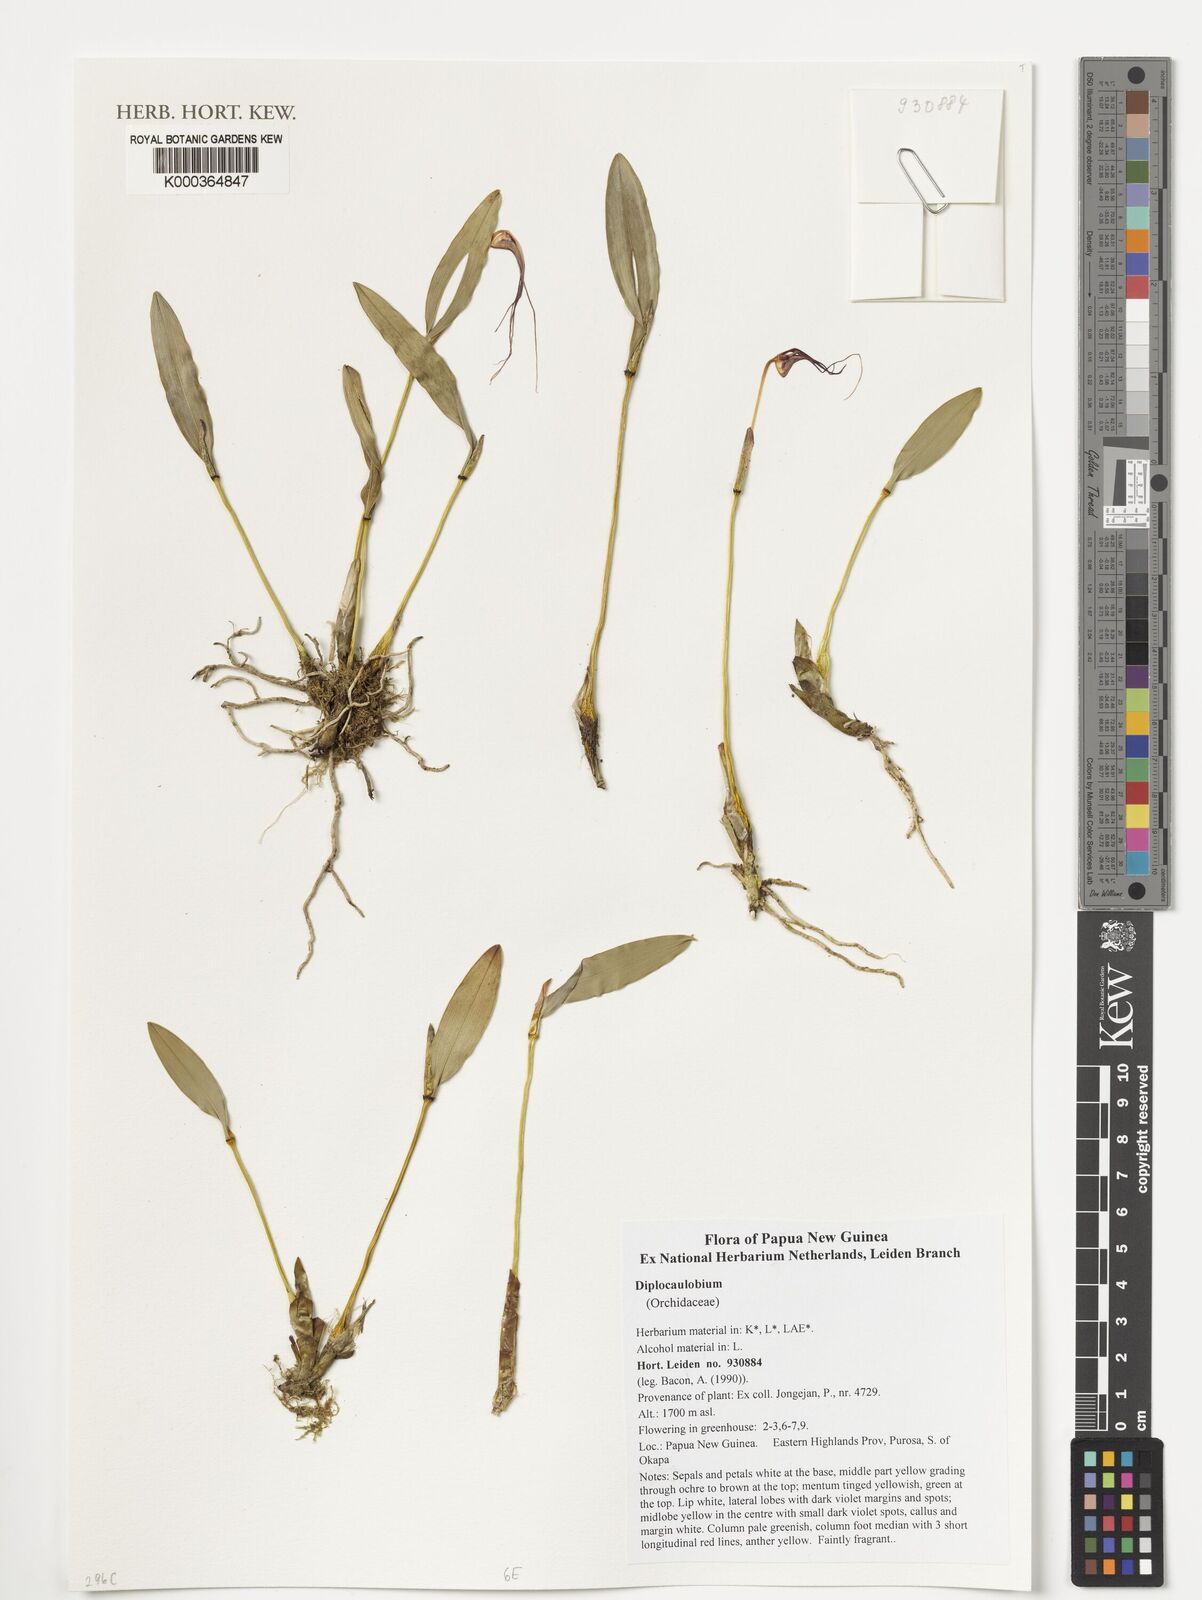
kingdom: Plantae
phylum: Tracheophyta
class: Liliopsida
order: Asparagales
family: Orchidaceae
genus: Dendrobium
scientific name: Dendrobium
